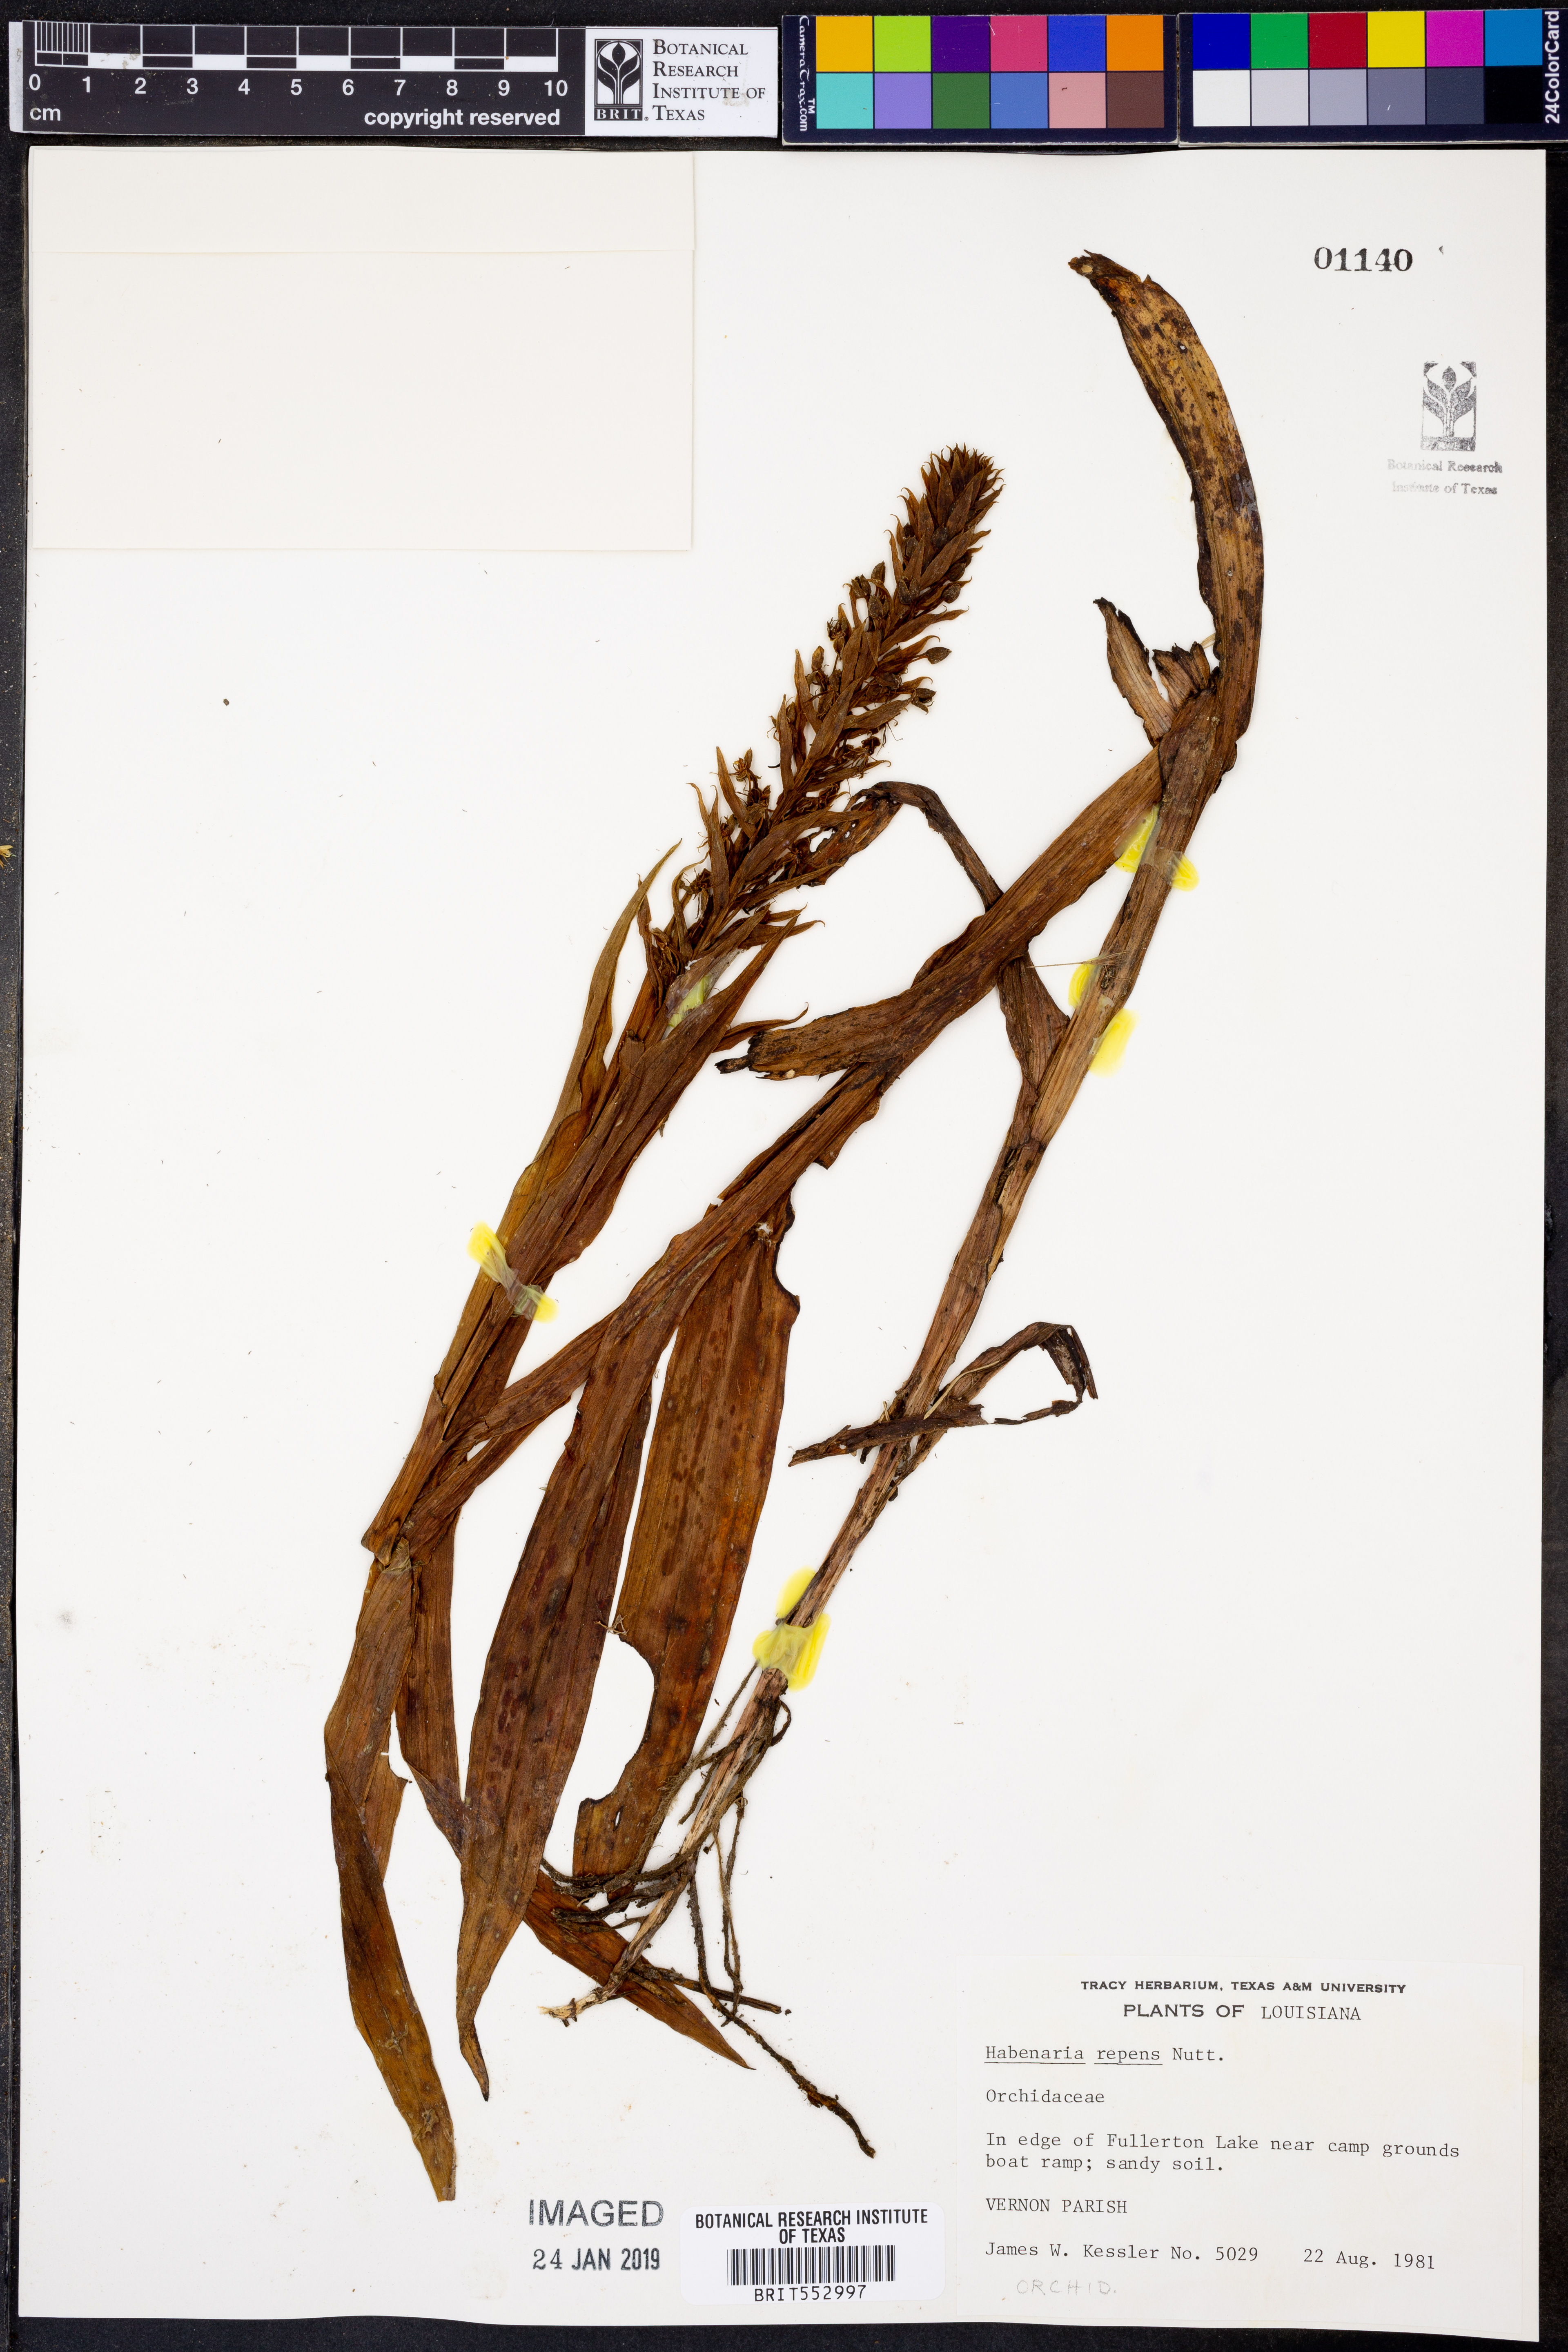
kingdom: Plantae
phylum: Tracheophyta
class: Liliopsida
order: Asparagales
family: Orchidaceae
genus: Habenaria
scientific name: Habenaria repens
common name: Water orchid
